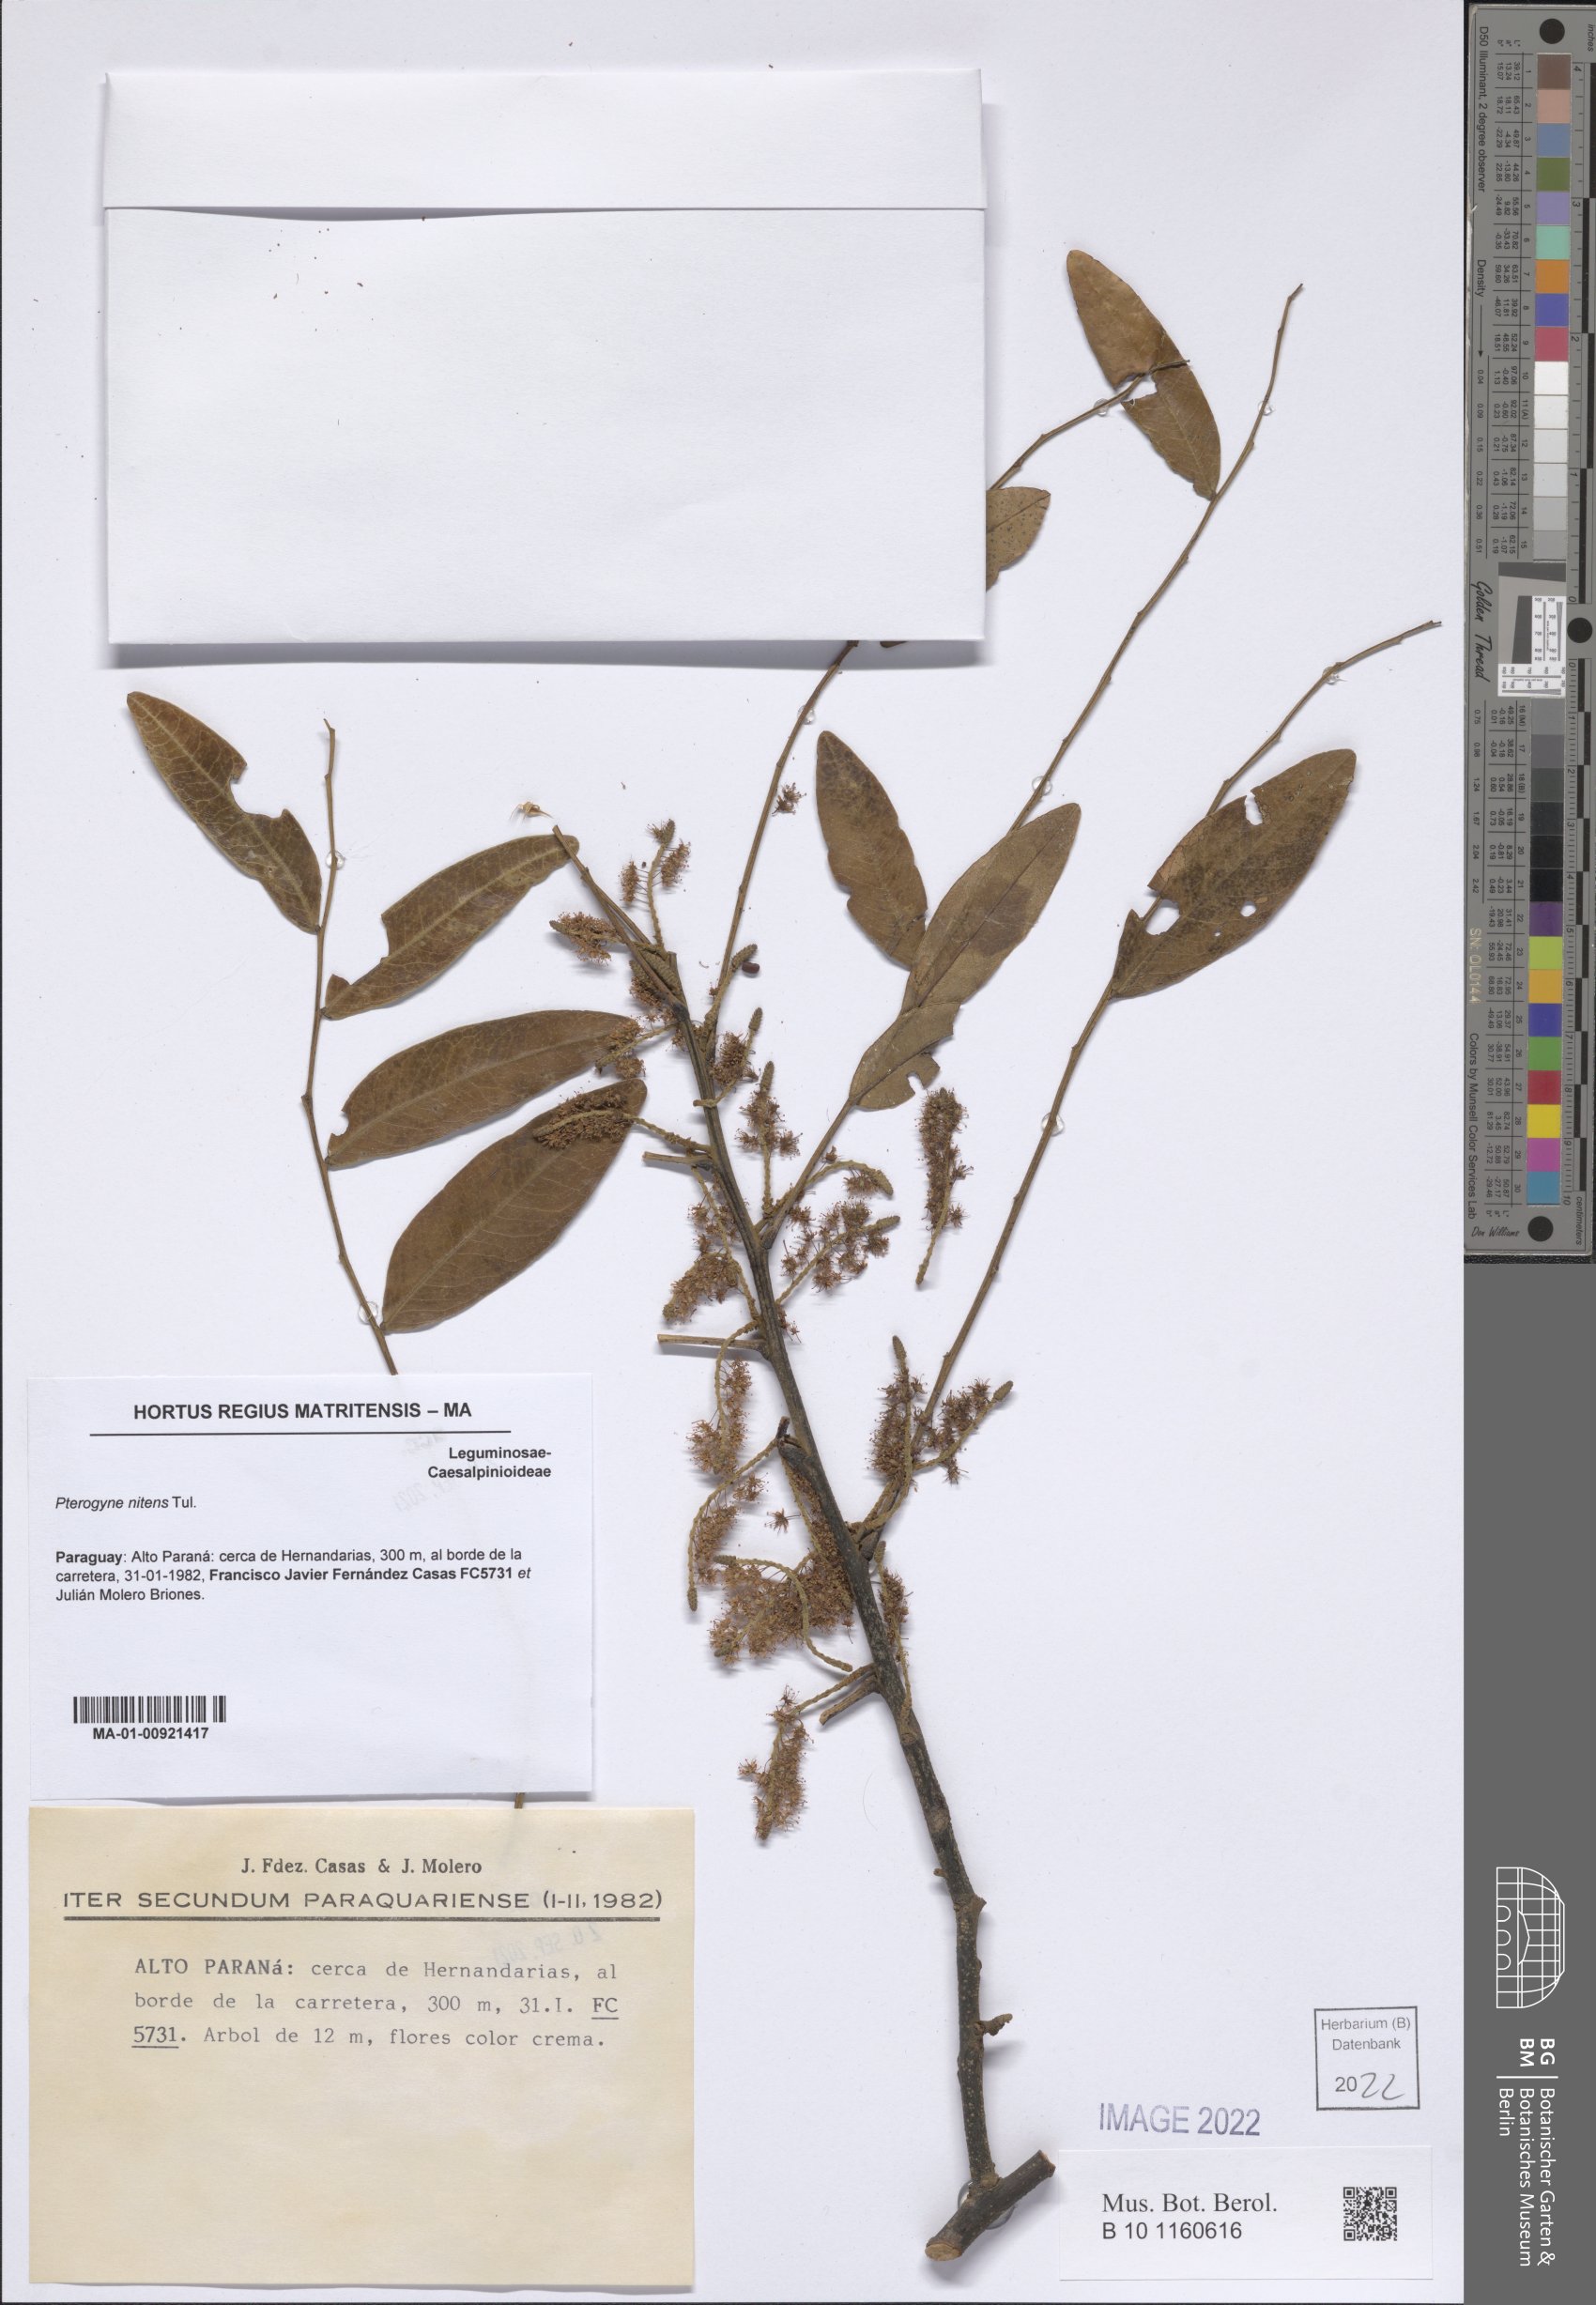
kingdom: Plantae
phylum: Tracheophyta
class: Magnoliopsida
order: Fabales
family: Fabaceae
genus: Pterogyne
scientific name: Pterogyne nitens
